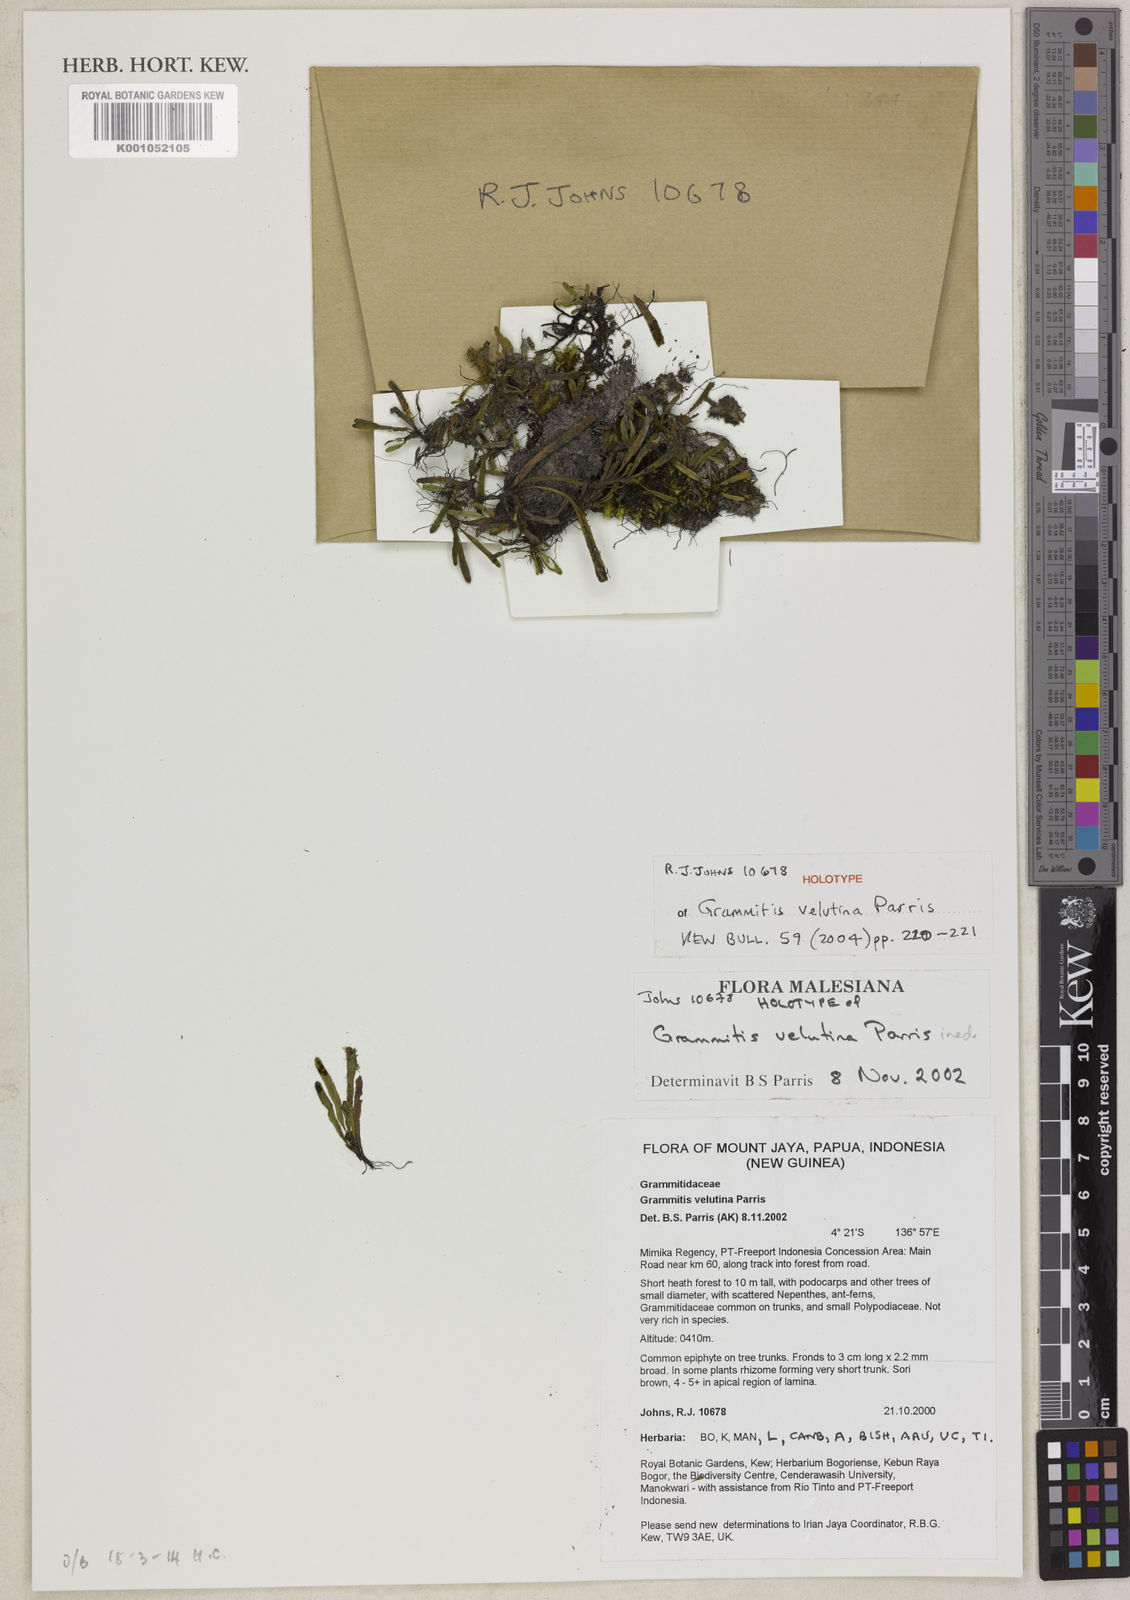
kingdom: Plantae
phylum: Tracheophyta
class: Polypodiopsida
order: Polypodiales
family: Polypodiaceae
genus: Oreogrammitis
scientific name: Oreogrammitis velutina
